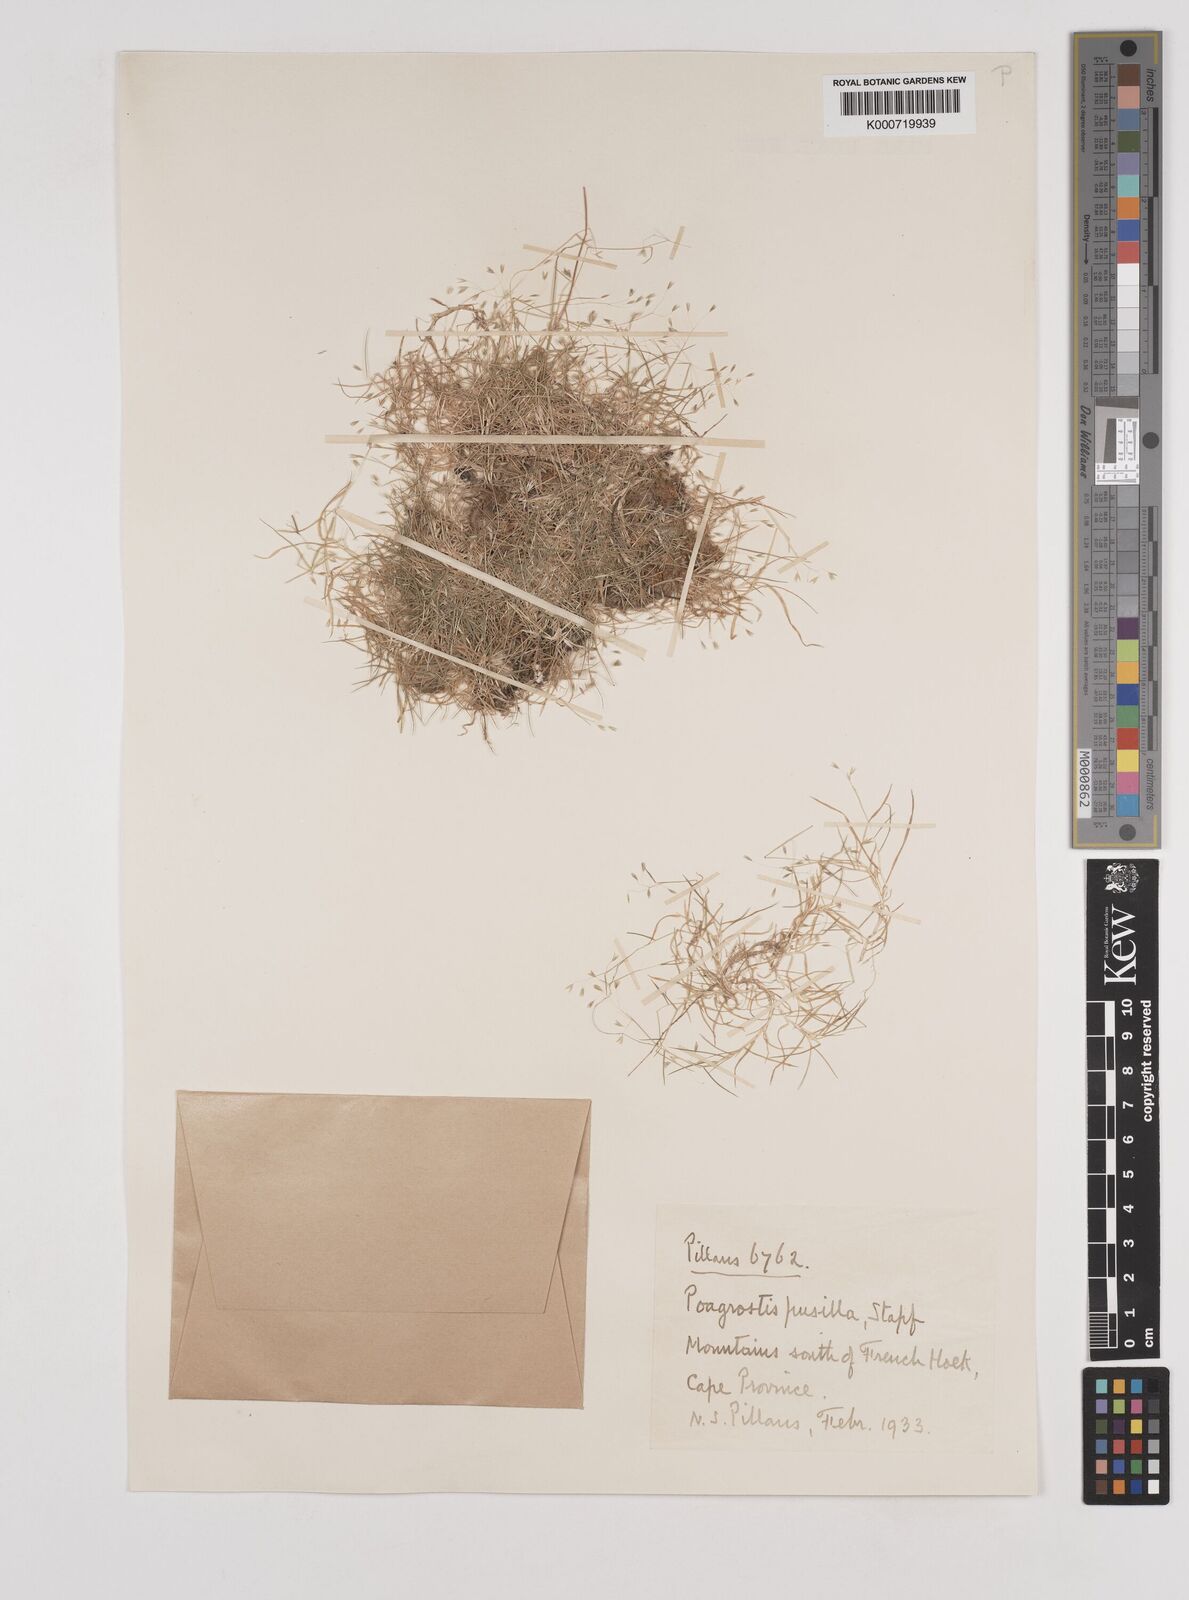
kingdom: Plantae
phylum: Tracheophyta
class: Liliopsida
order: Poales
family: Poaceae
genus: Pentameris
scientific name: Pentameris pusilla
